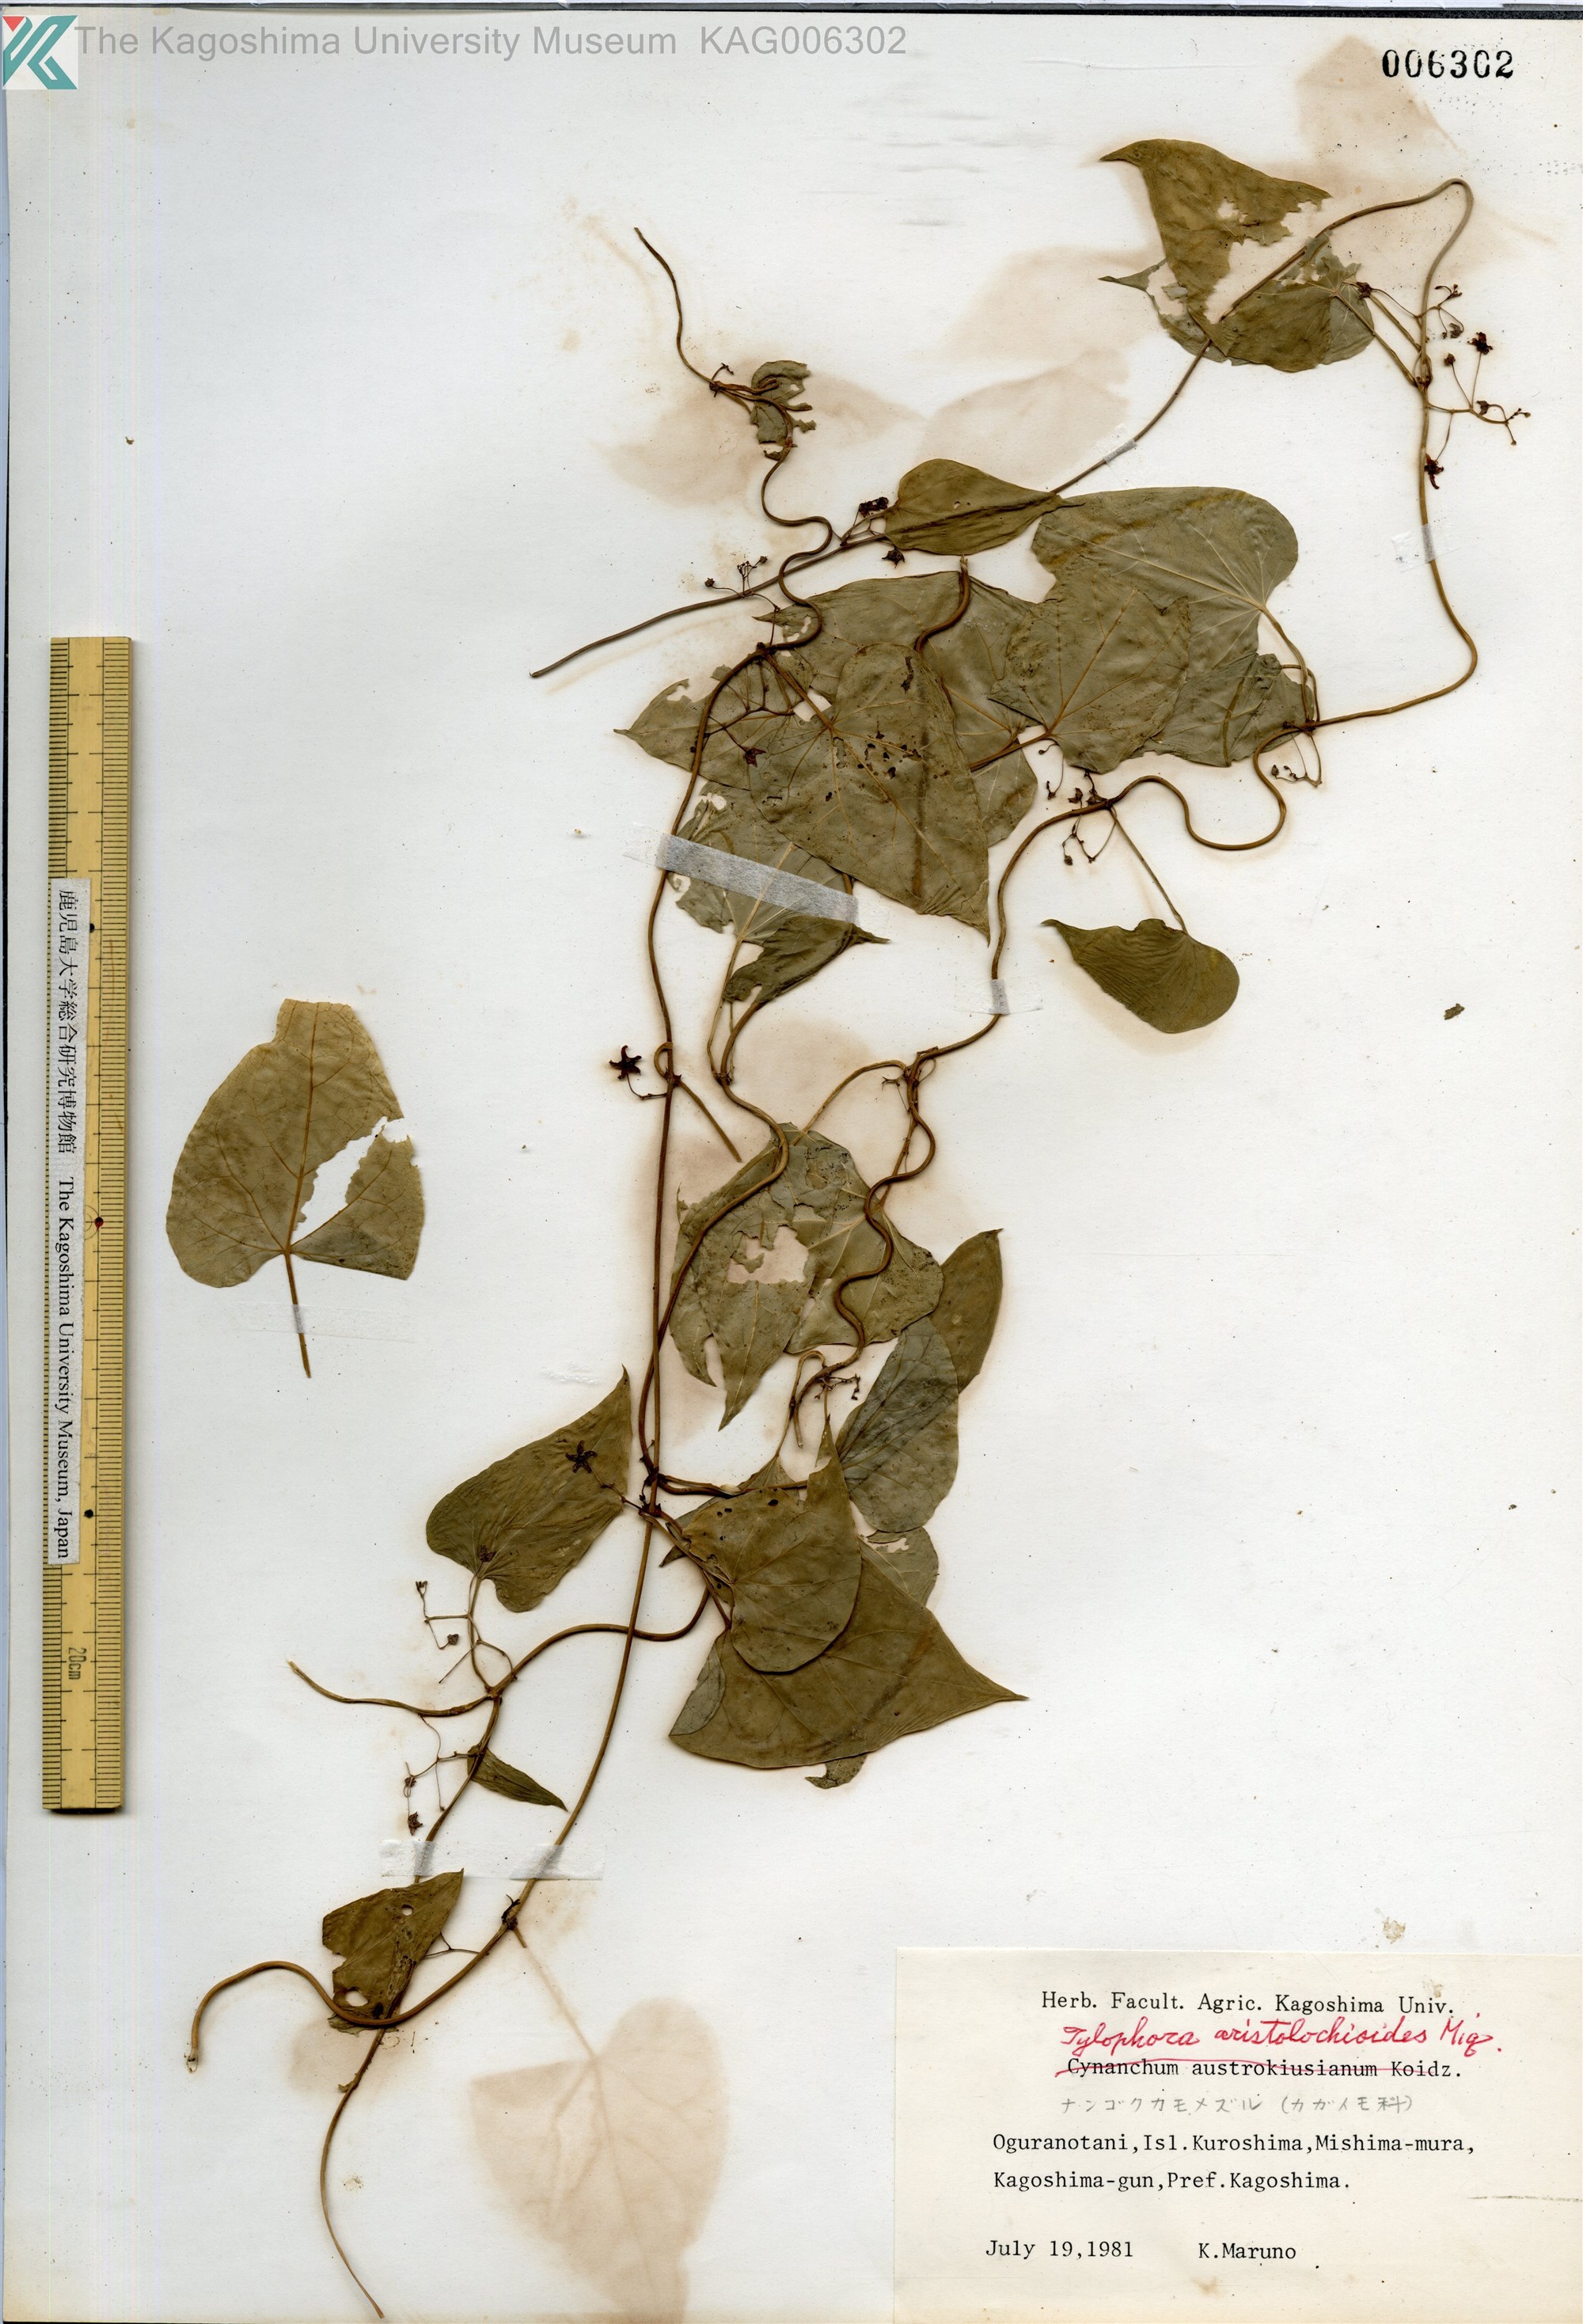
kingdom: Plantae
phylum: Tracheophyta
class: Magnoliopsida
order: Gentianales
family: Apocynaceae
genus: Vincetoxicum
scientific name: Vincetoxicum aristolochioides
